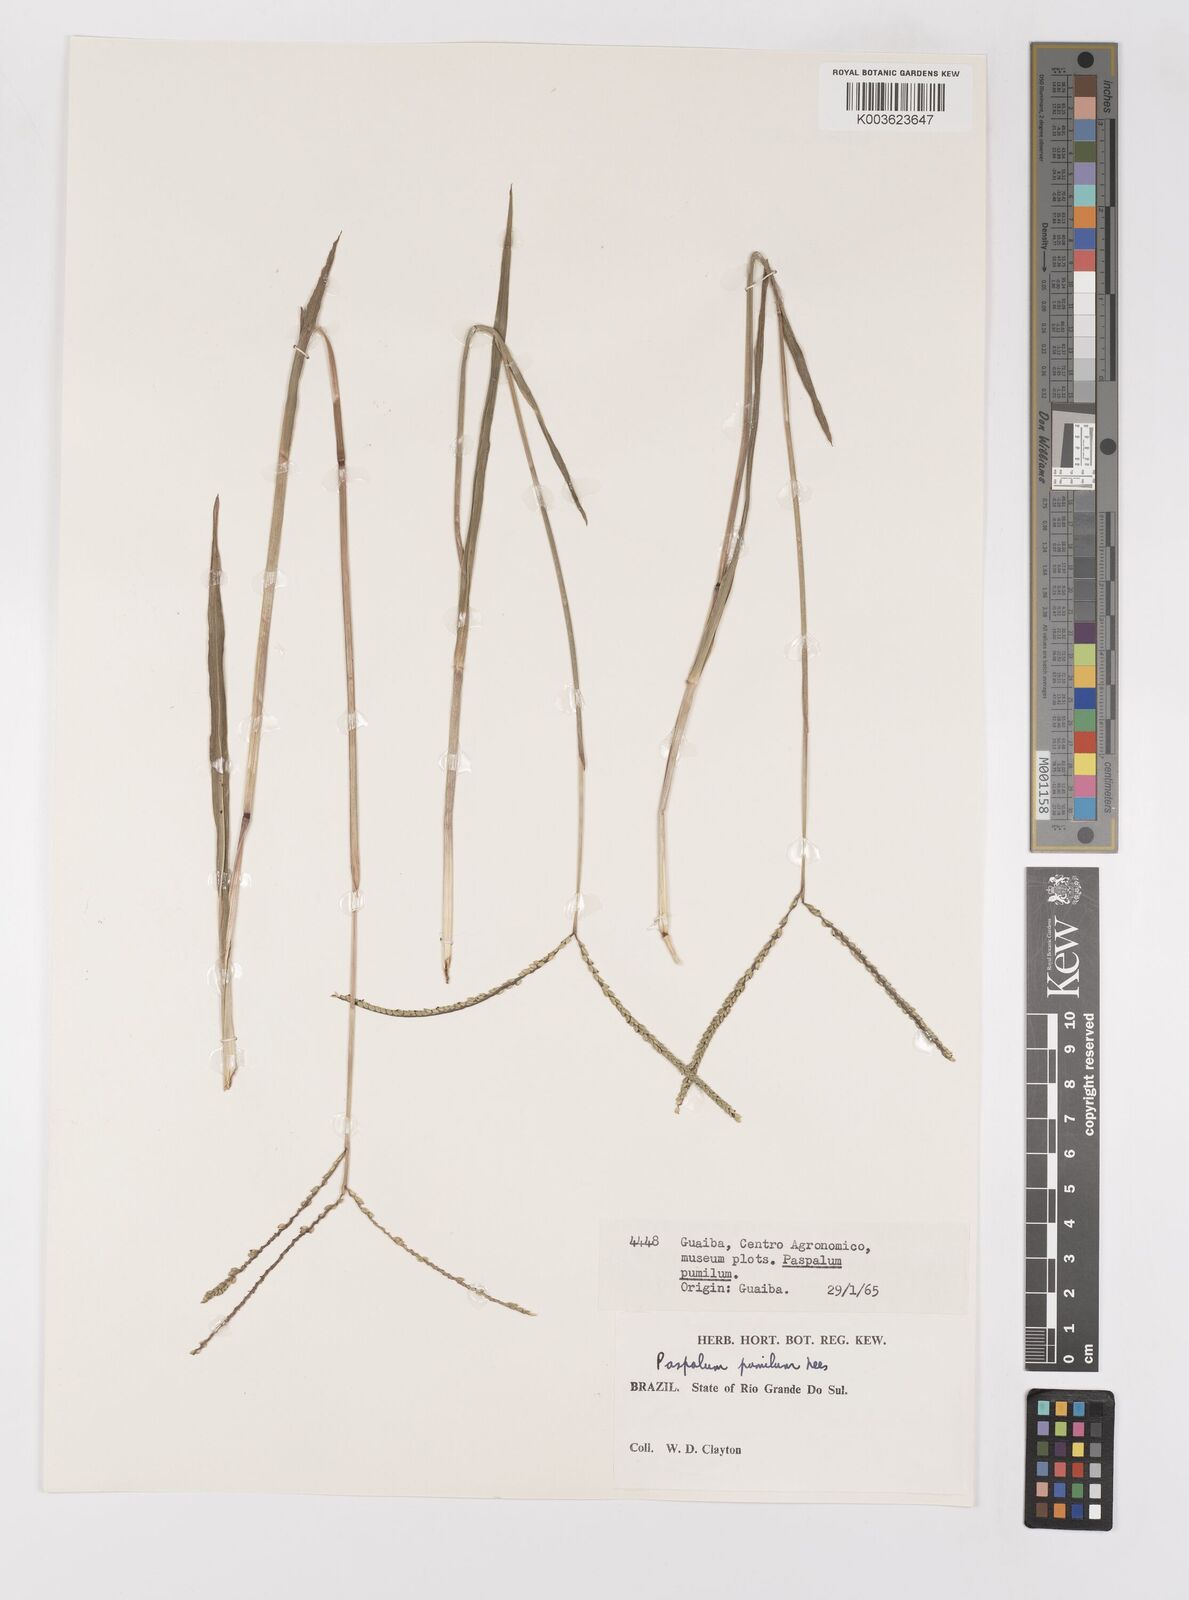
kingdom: Plantae
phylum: Tracheophyta
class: Liliopsida
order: Poales
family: Poaceae
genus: Paspalum
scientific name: Paspalum pumilum
